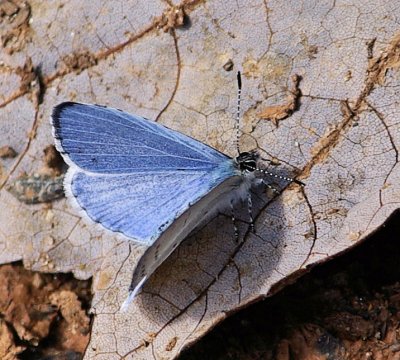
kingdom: Animalia
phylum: Arthropoda
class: Insecta
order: Lepidoptera
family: Lycaenidae
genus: Celastrina
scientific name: Celastrina neglectamajor
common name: Appalachian Azure
